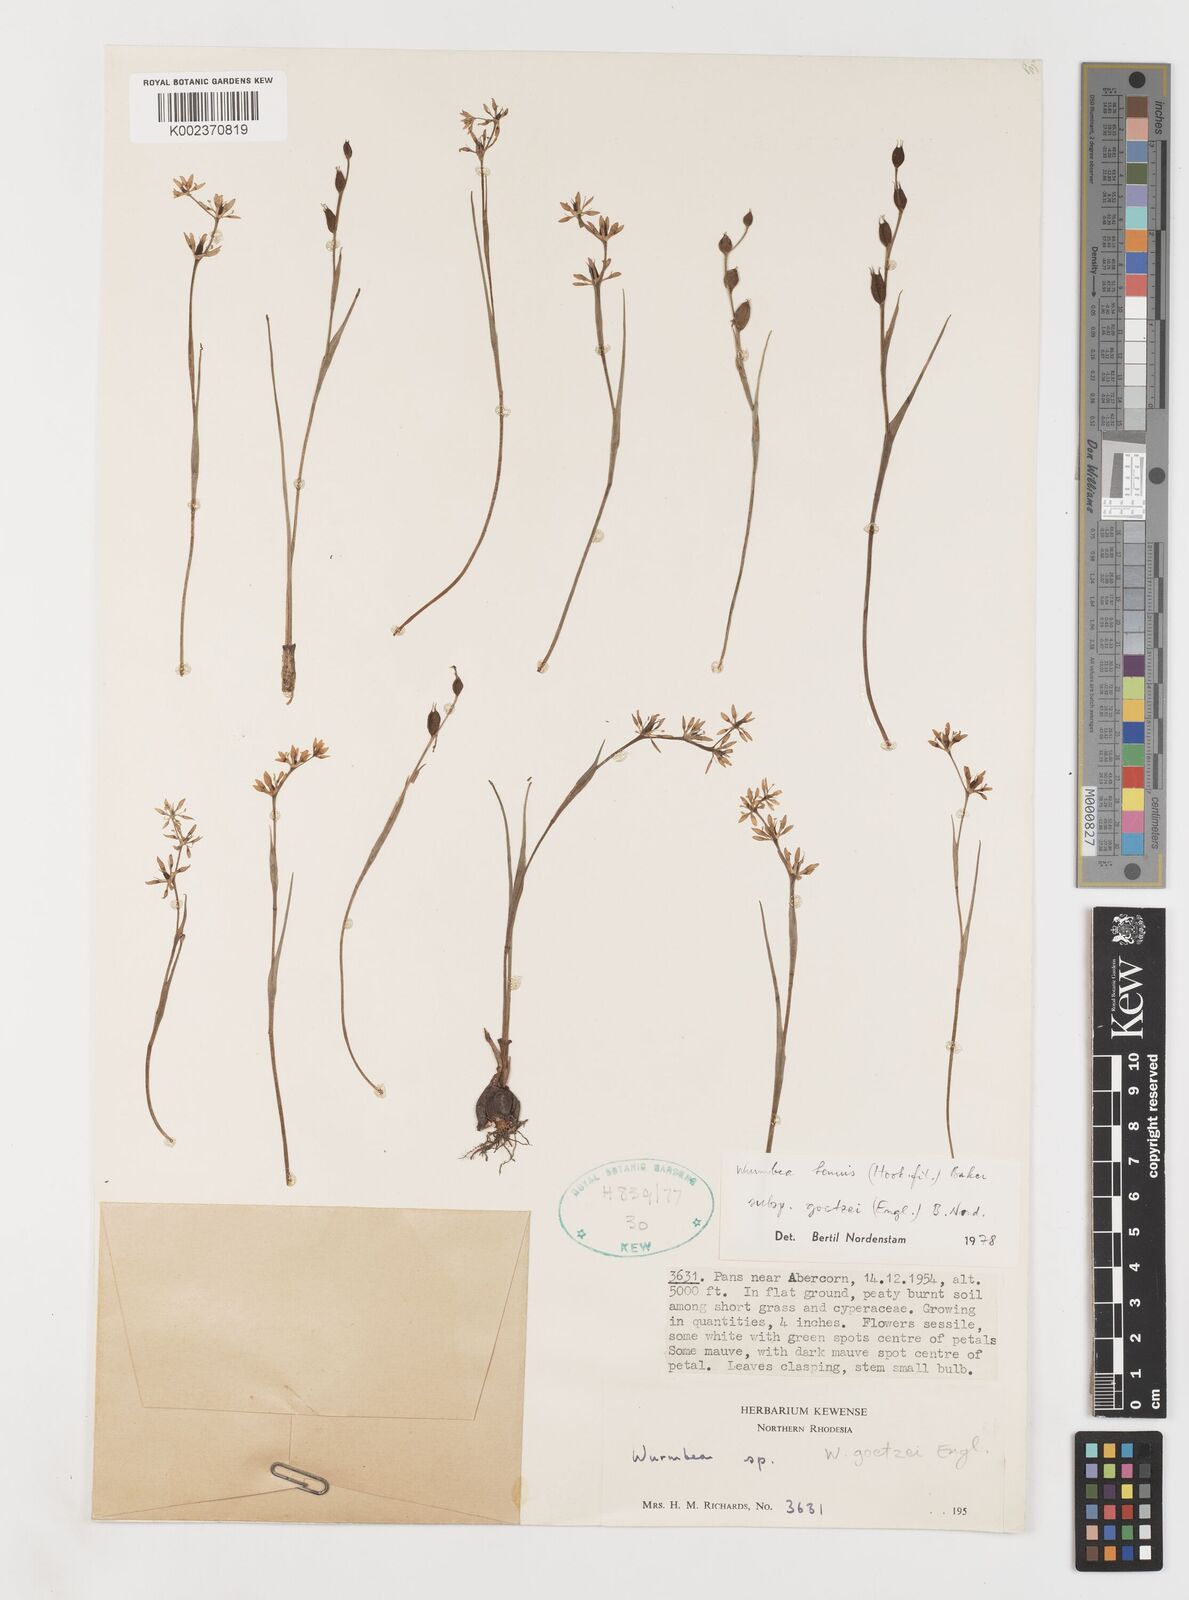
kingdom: Plantae
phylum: Tracheophyta
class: Liliopsida
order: Liliales
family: Colchicaceae
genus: Wurmbea
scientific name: Wurmbea tenuis
